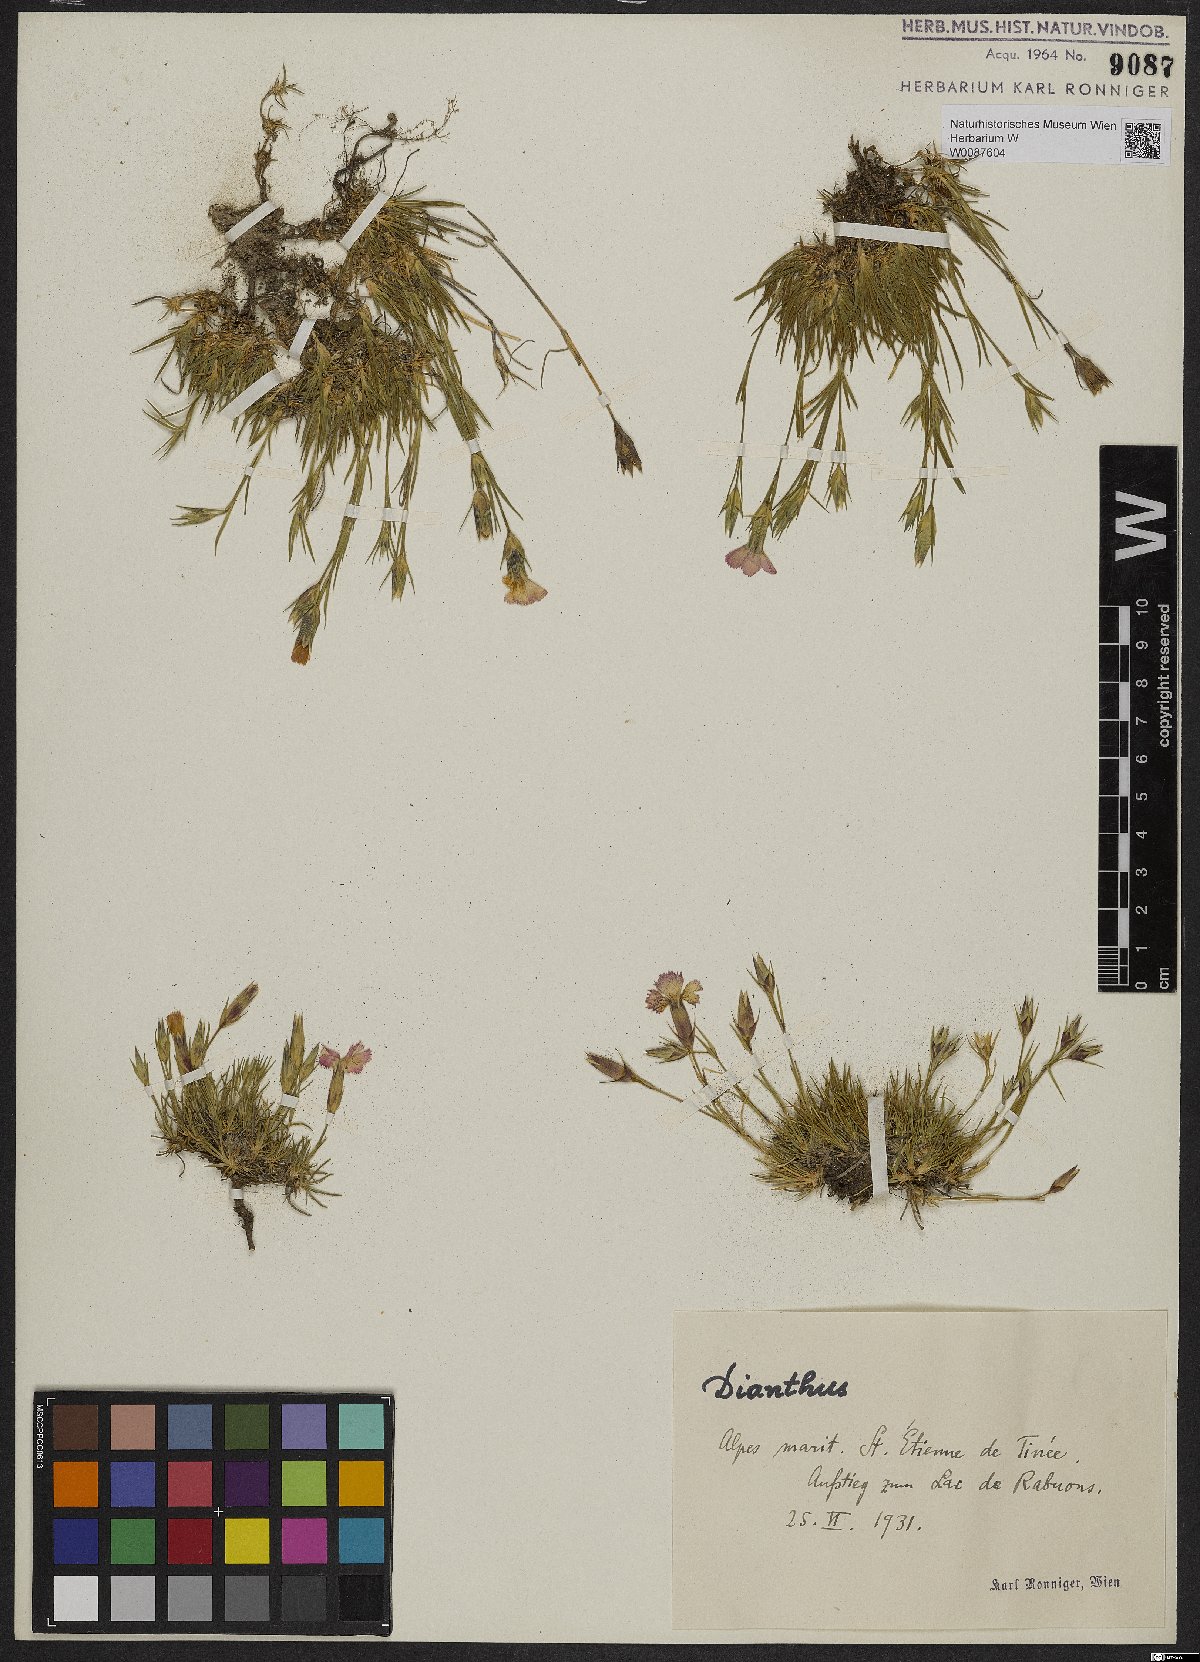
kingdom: Plantae
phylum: Tracheophyta
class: Magnoliopsida
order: Caryophyllales
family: Caryophyllaceae
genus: Dianthus
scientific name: Dianthus
